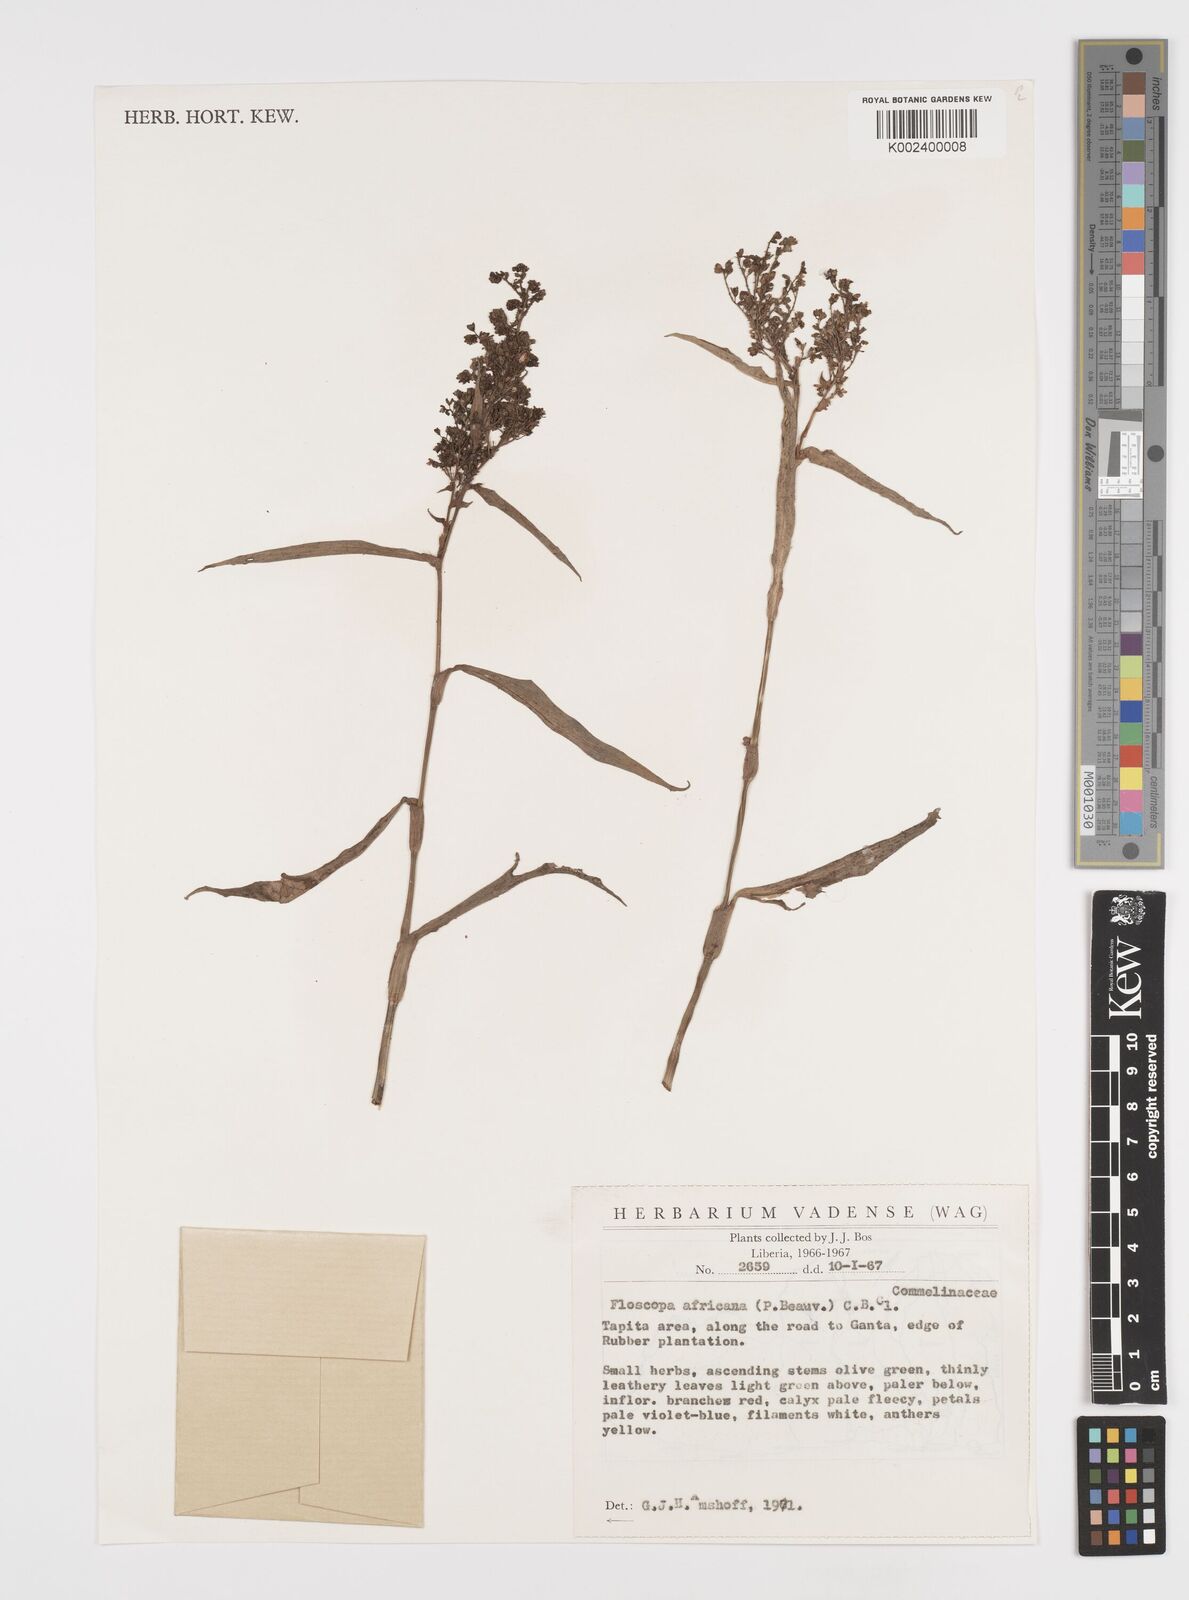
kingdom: Plantae
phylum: Tracheophyta
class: Liliopsida
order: Commelinales
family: Commelinaceae
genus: Floscopa
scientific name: Floscopa africana
